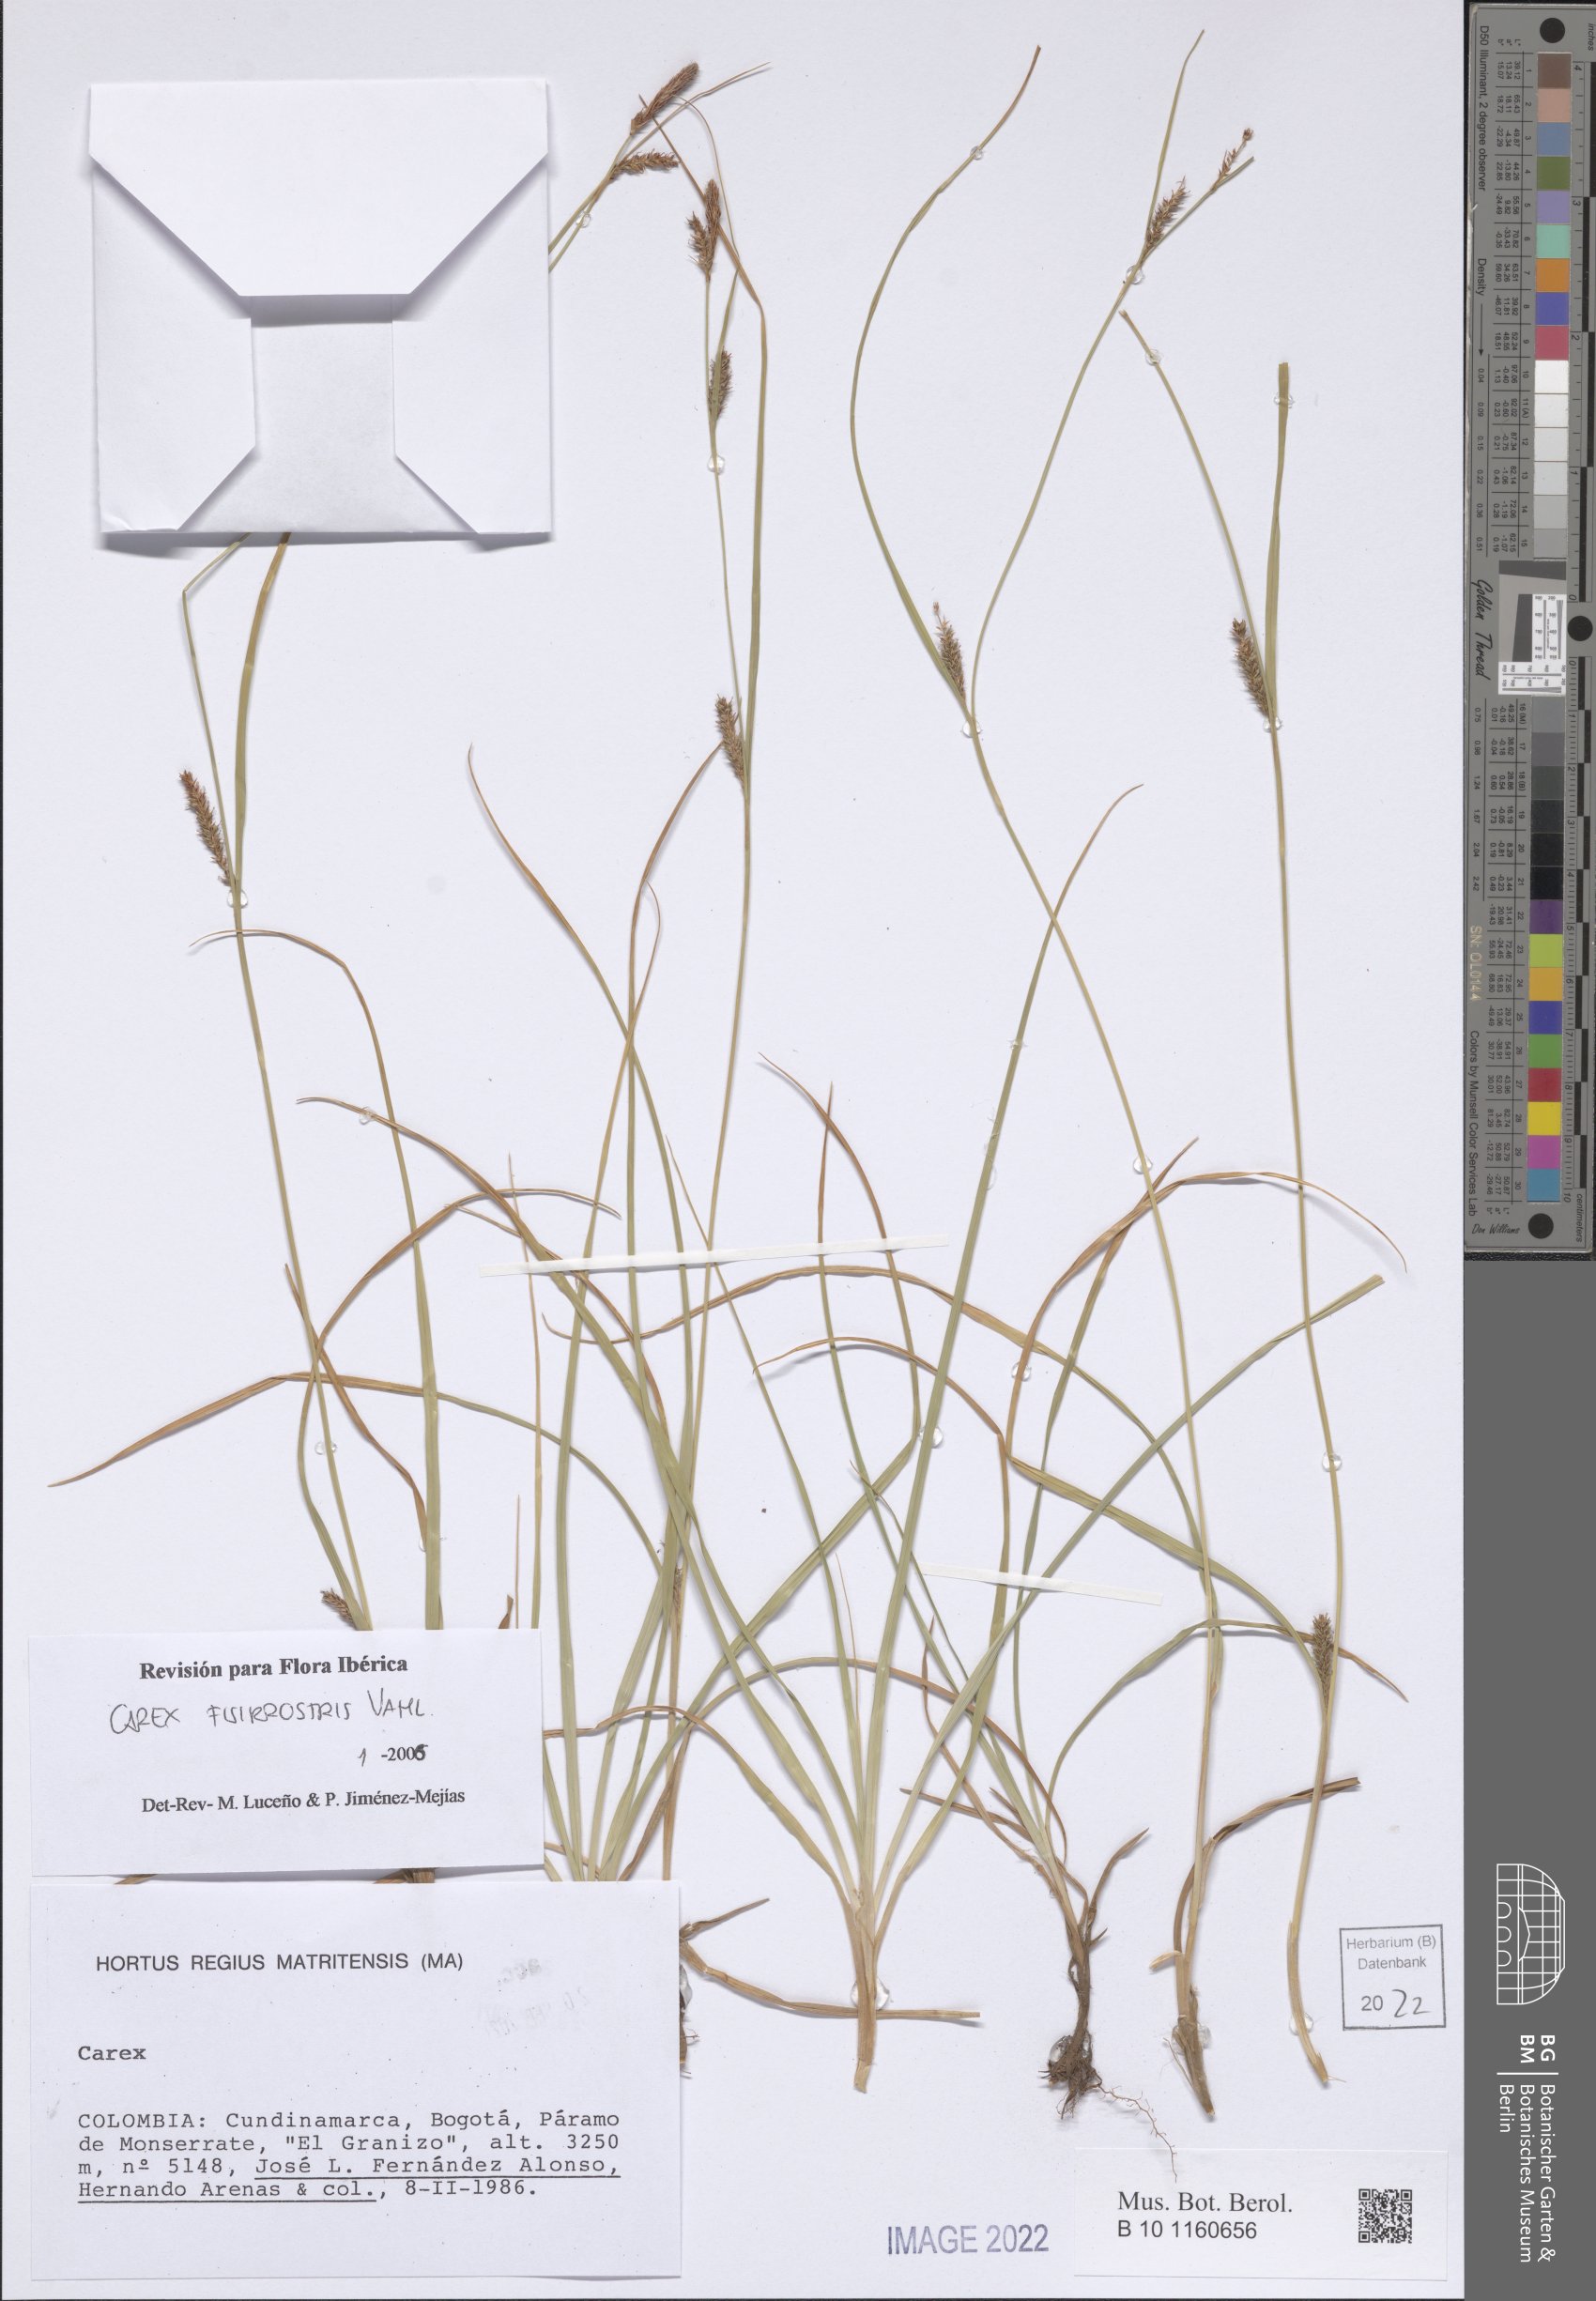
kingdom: Plantae
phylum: Tracheophyta
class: Liliopsida
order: Poales
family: Cyperaceae
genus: Carex
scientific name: Carex fissirostris
